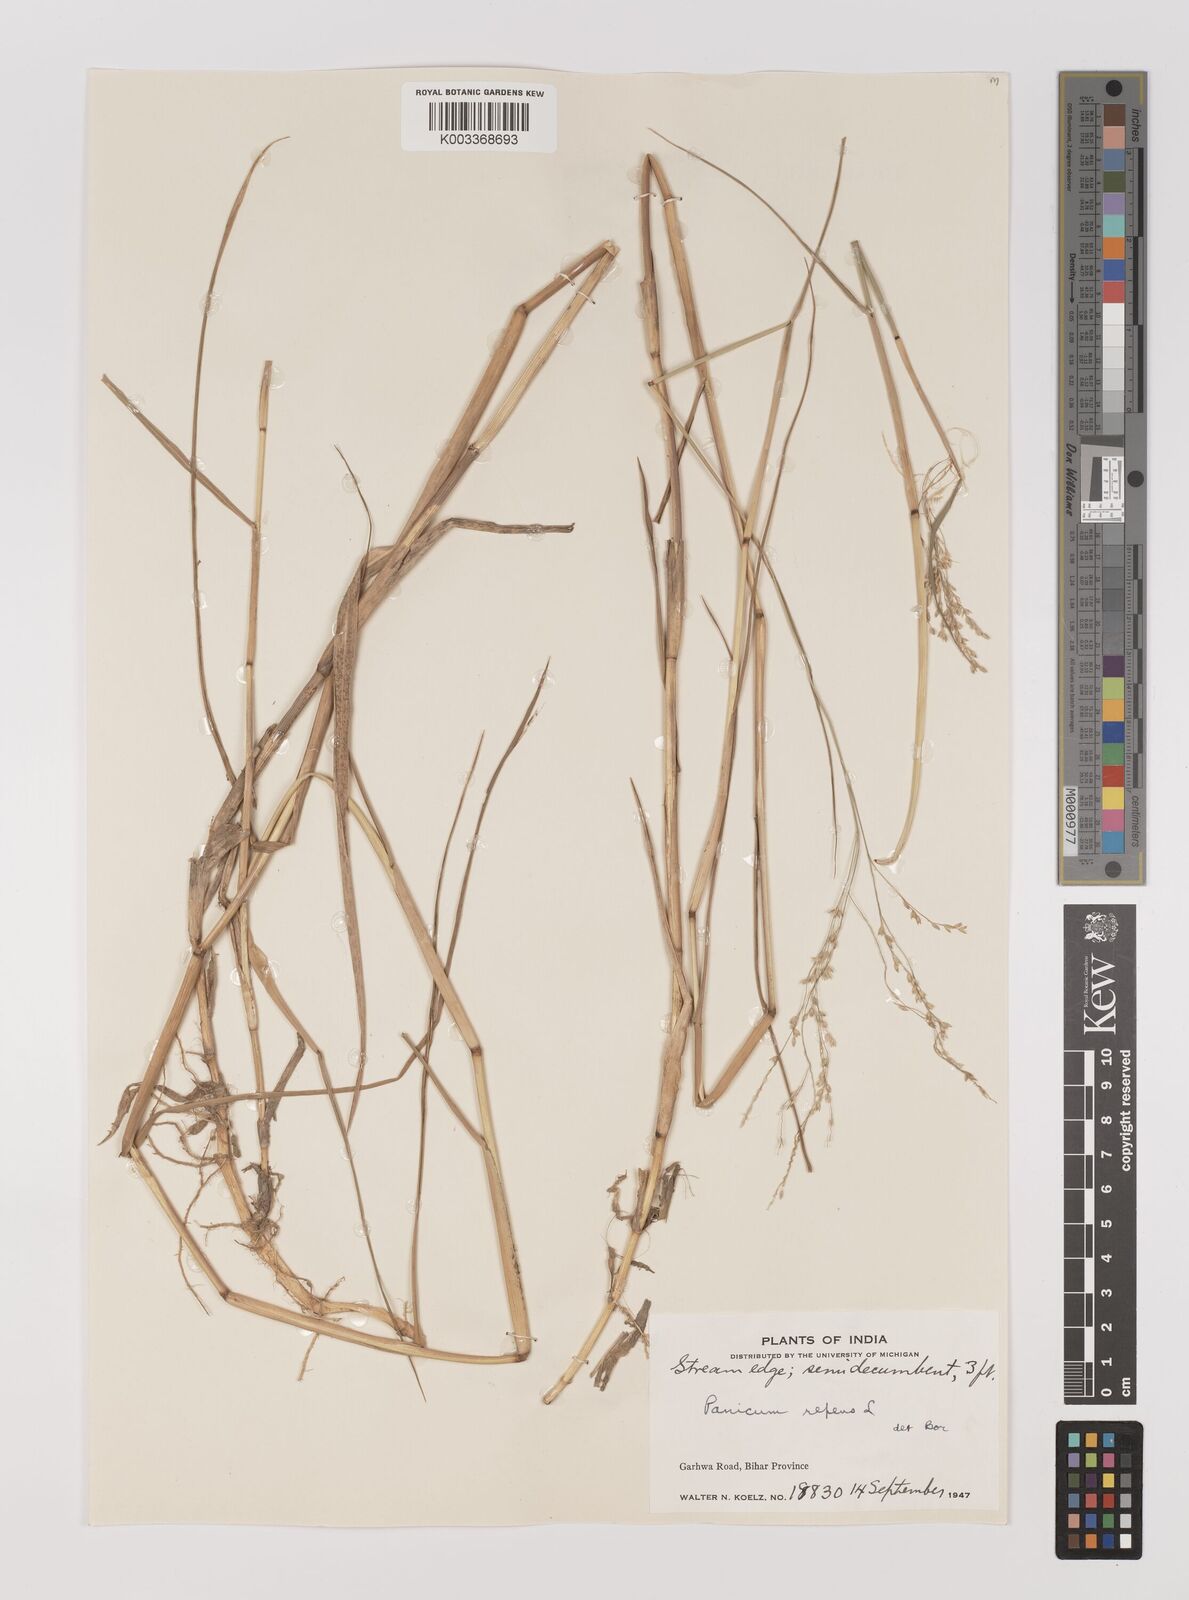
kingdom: Plantae
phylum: Tracheophyta
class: Liliopsida
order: Poales
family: Poaceae
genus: Panicum
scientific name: Panicum repens
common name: Torpedo grass
